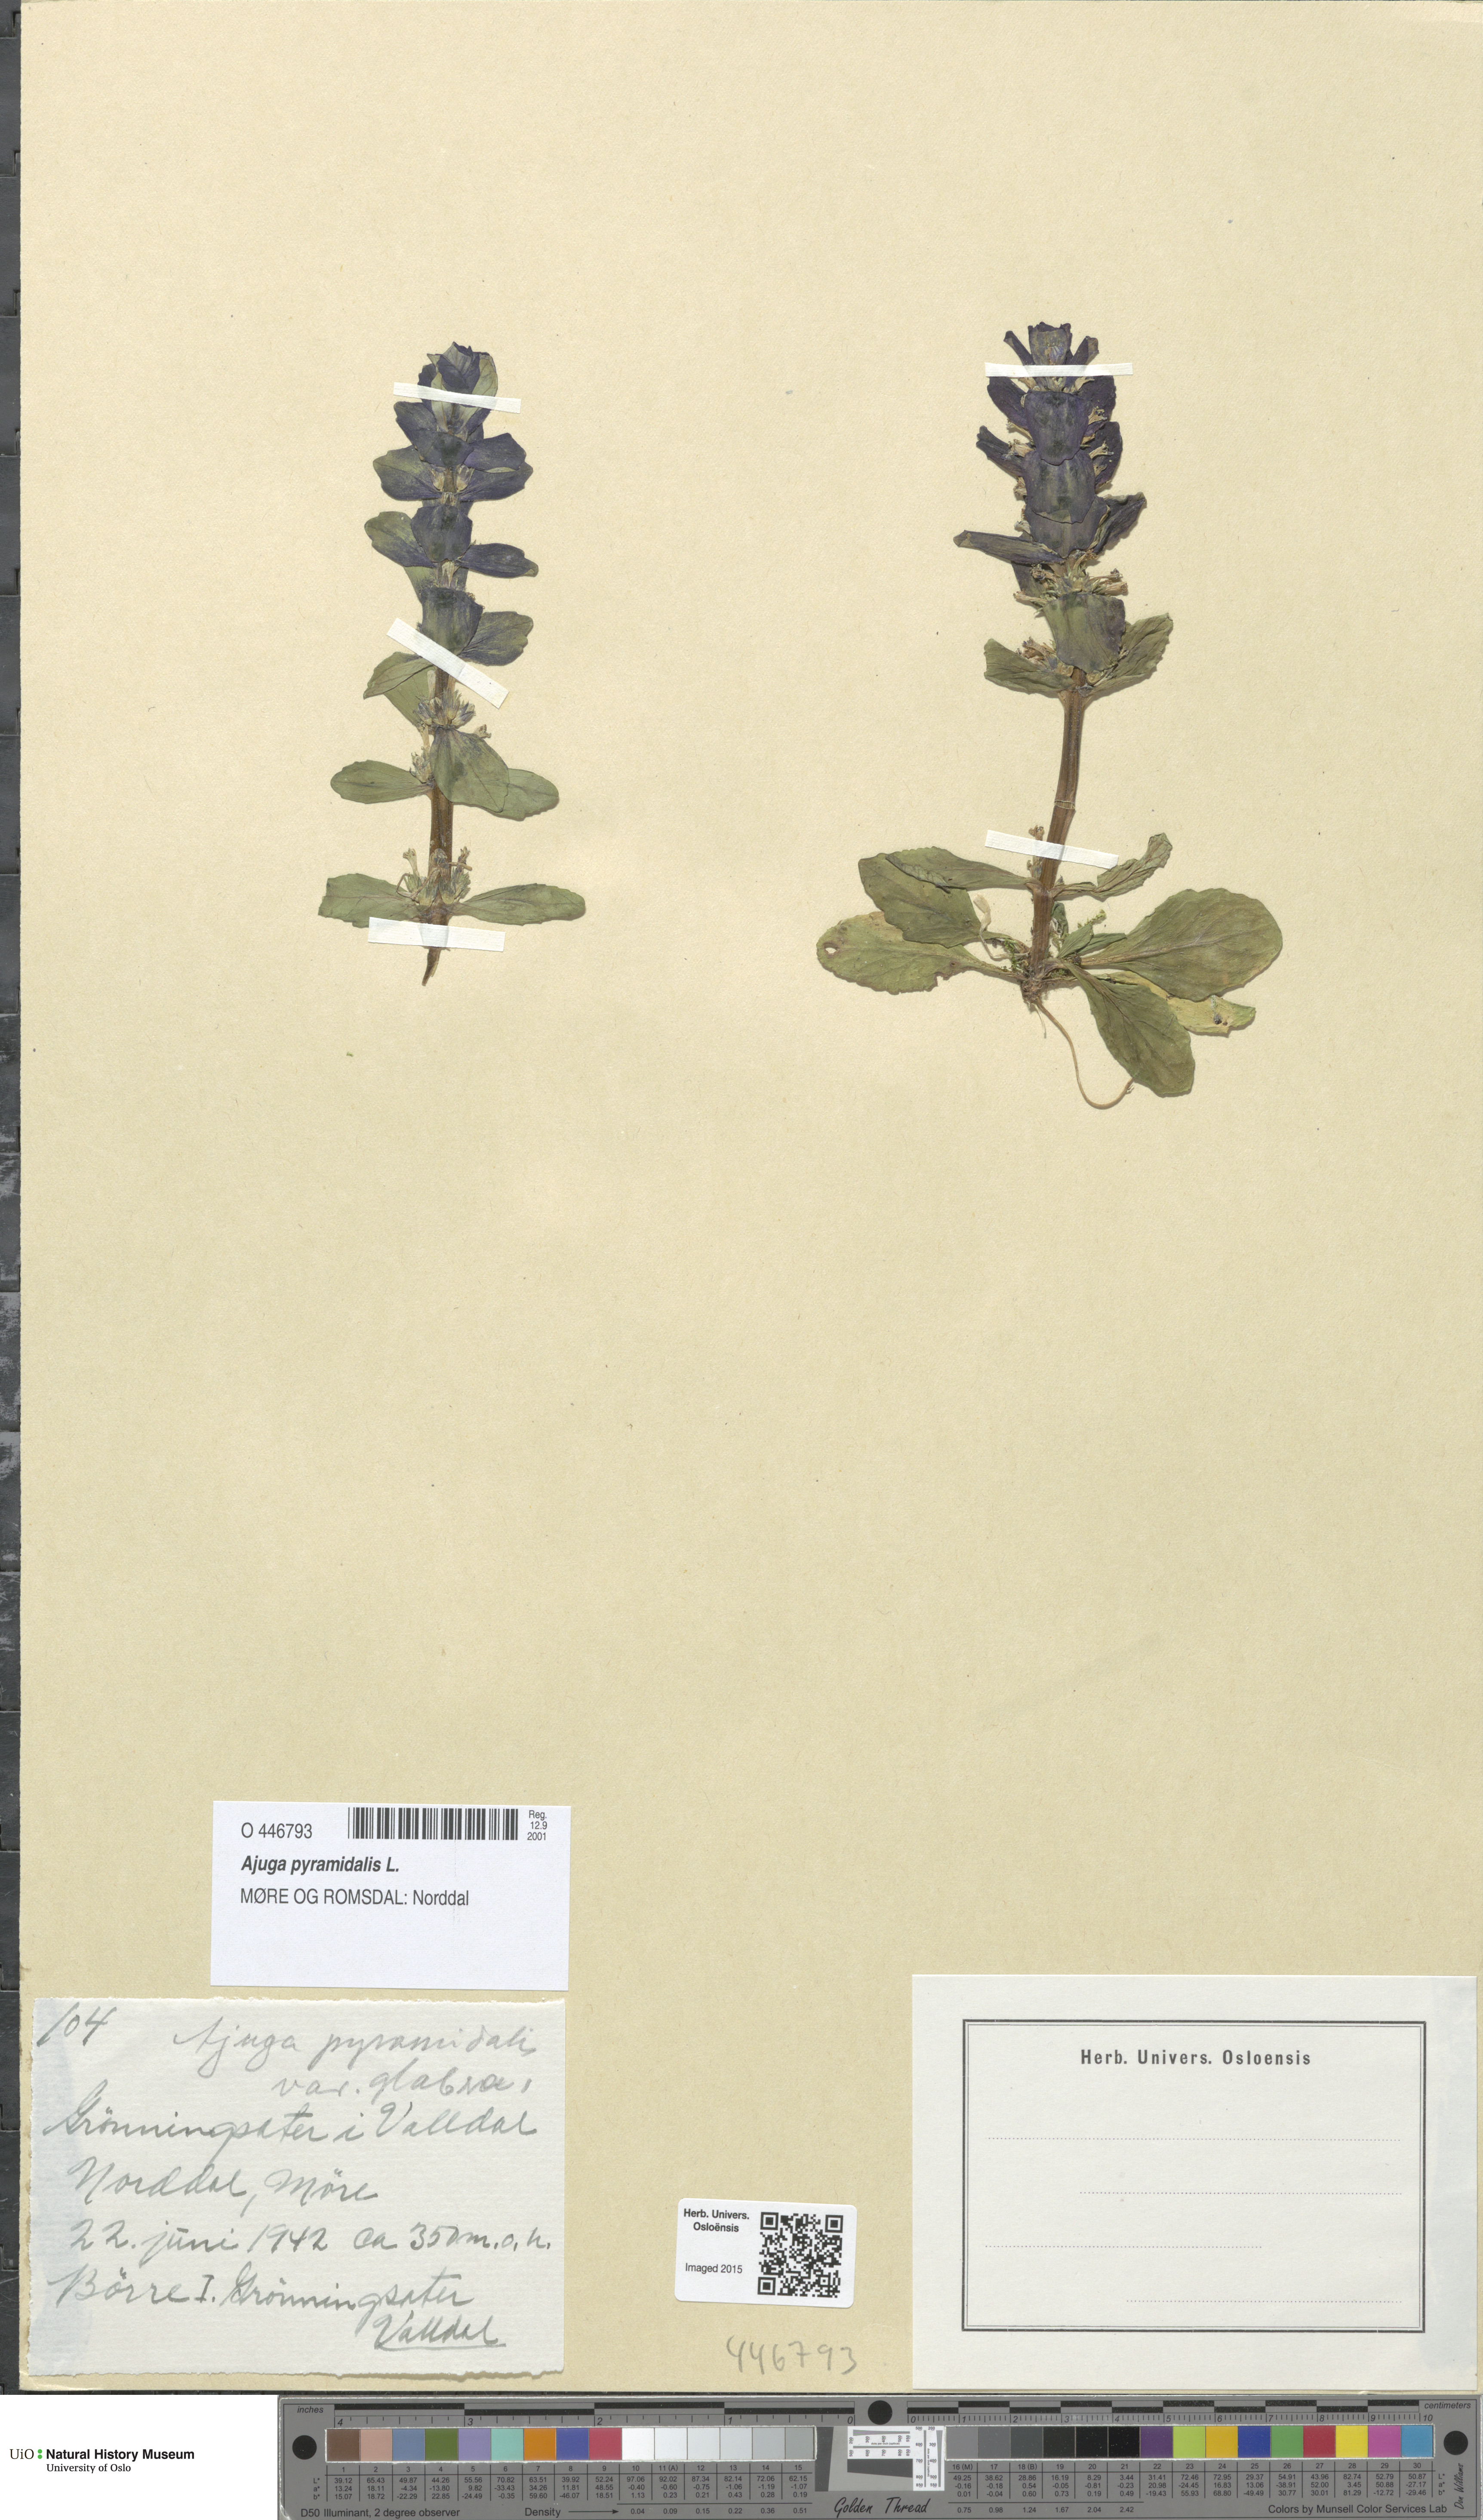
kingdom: Plantae
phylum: Tracheophyta
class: Magnoliopsida
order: Lamiales
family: Lamiaceae
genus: Ajuga
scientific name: Ajuga pyramidalis
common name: Pyramid bugle
